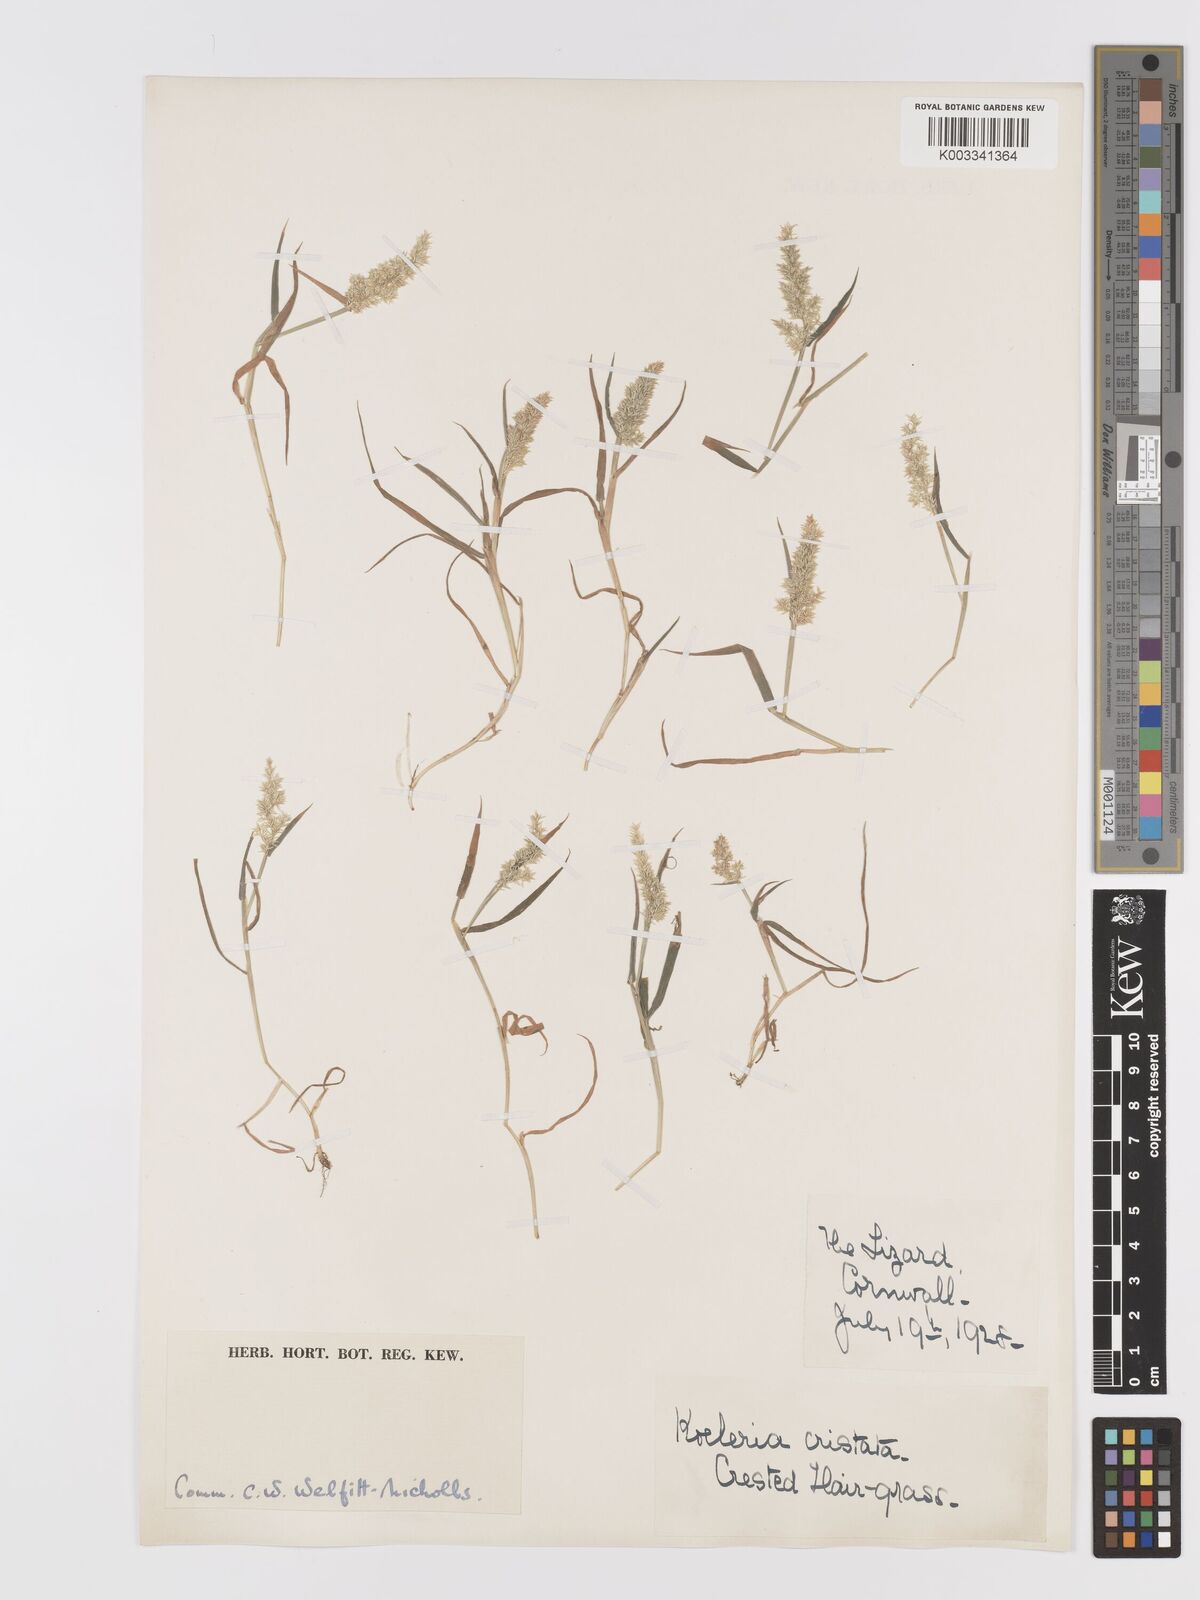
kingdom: Plantae
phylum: Tracheophyta
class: Liliopsida
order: Poales
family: Poaceae
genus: Agrostis
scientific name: Agrostis stolonifera
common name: Creeping bentgrass
